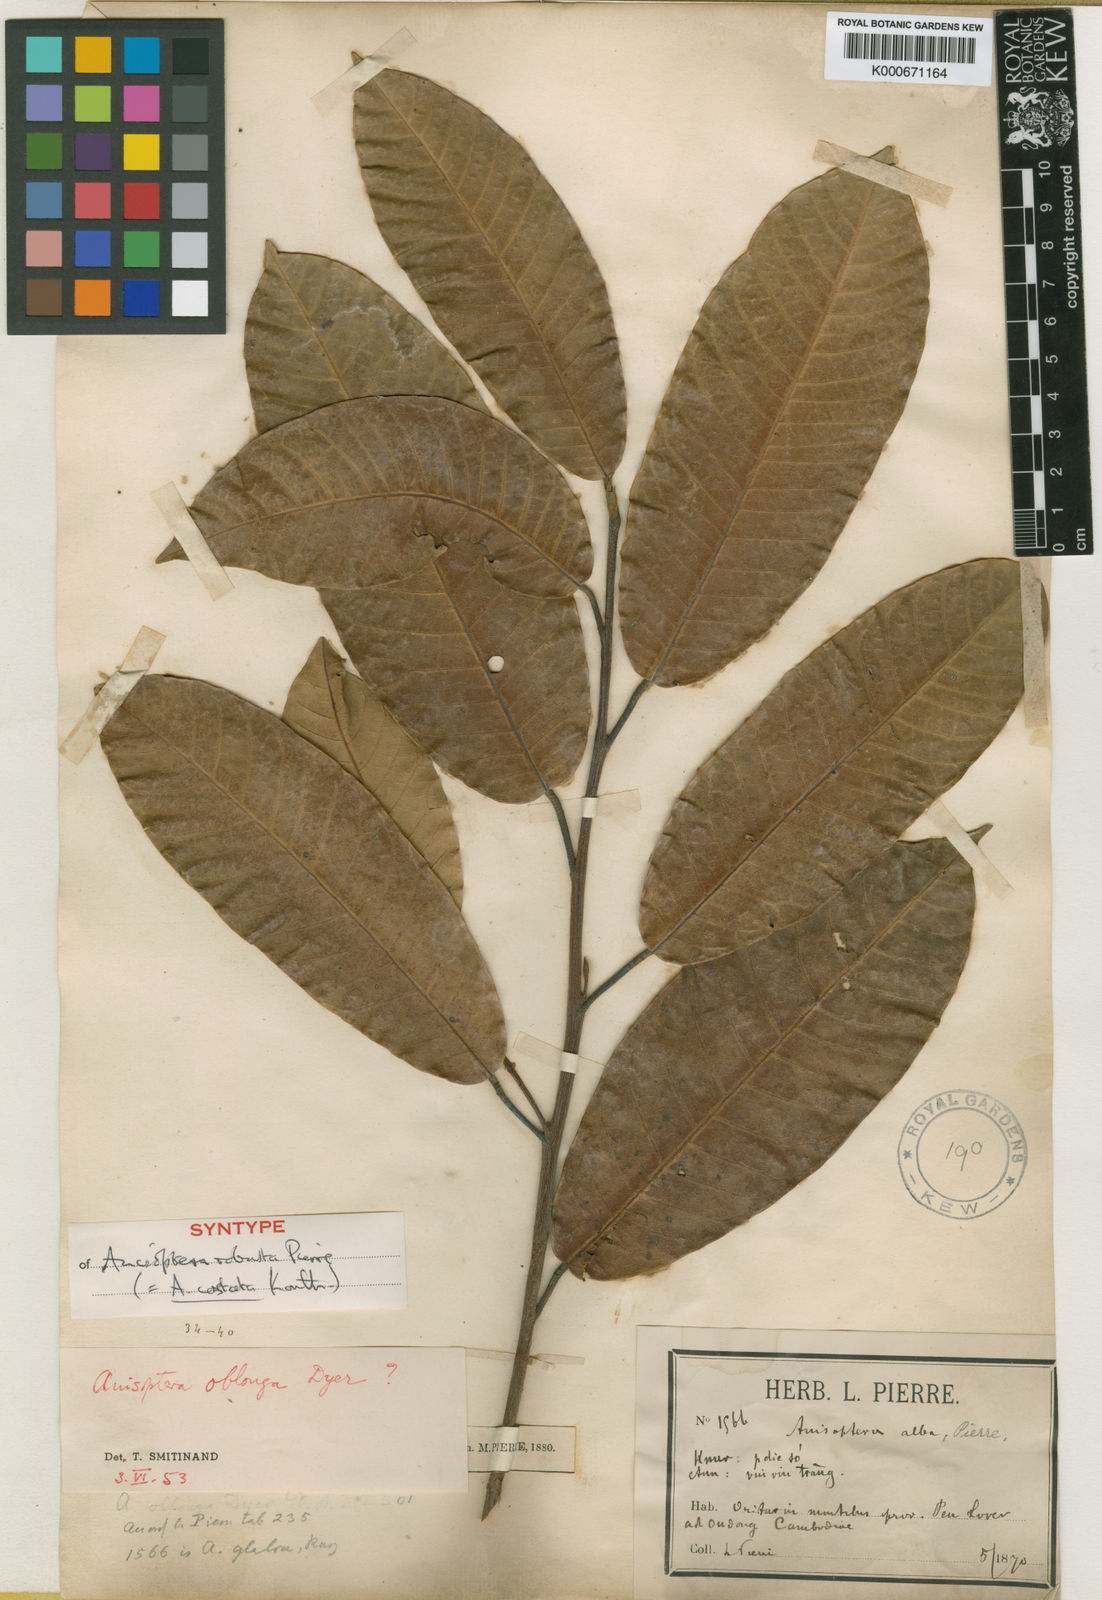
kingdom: Plantae
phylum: Tracheophyta
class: Magnoliopsida
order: Malvales
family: Dipterocarpaceae
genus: Anisoptera
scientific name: Anisoptera costata
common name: Mersawa
